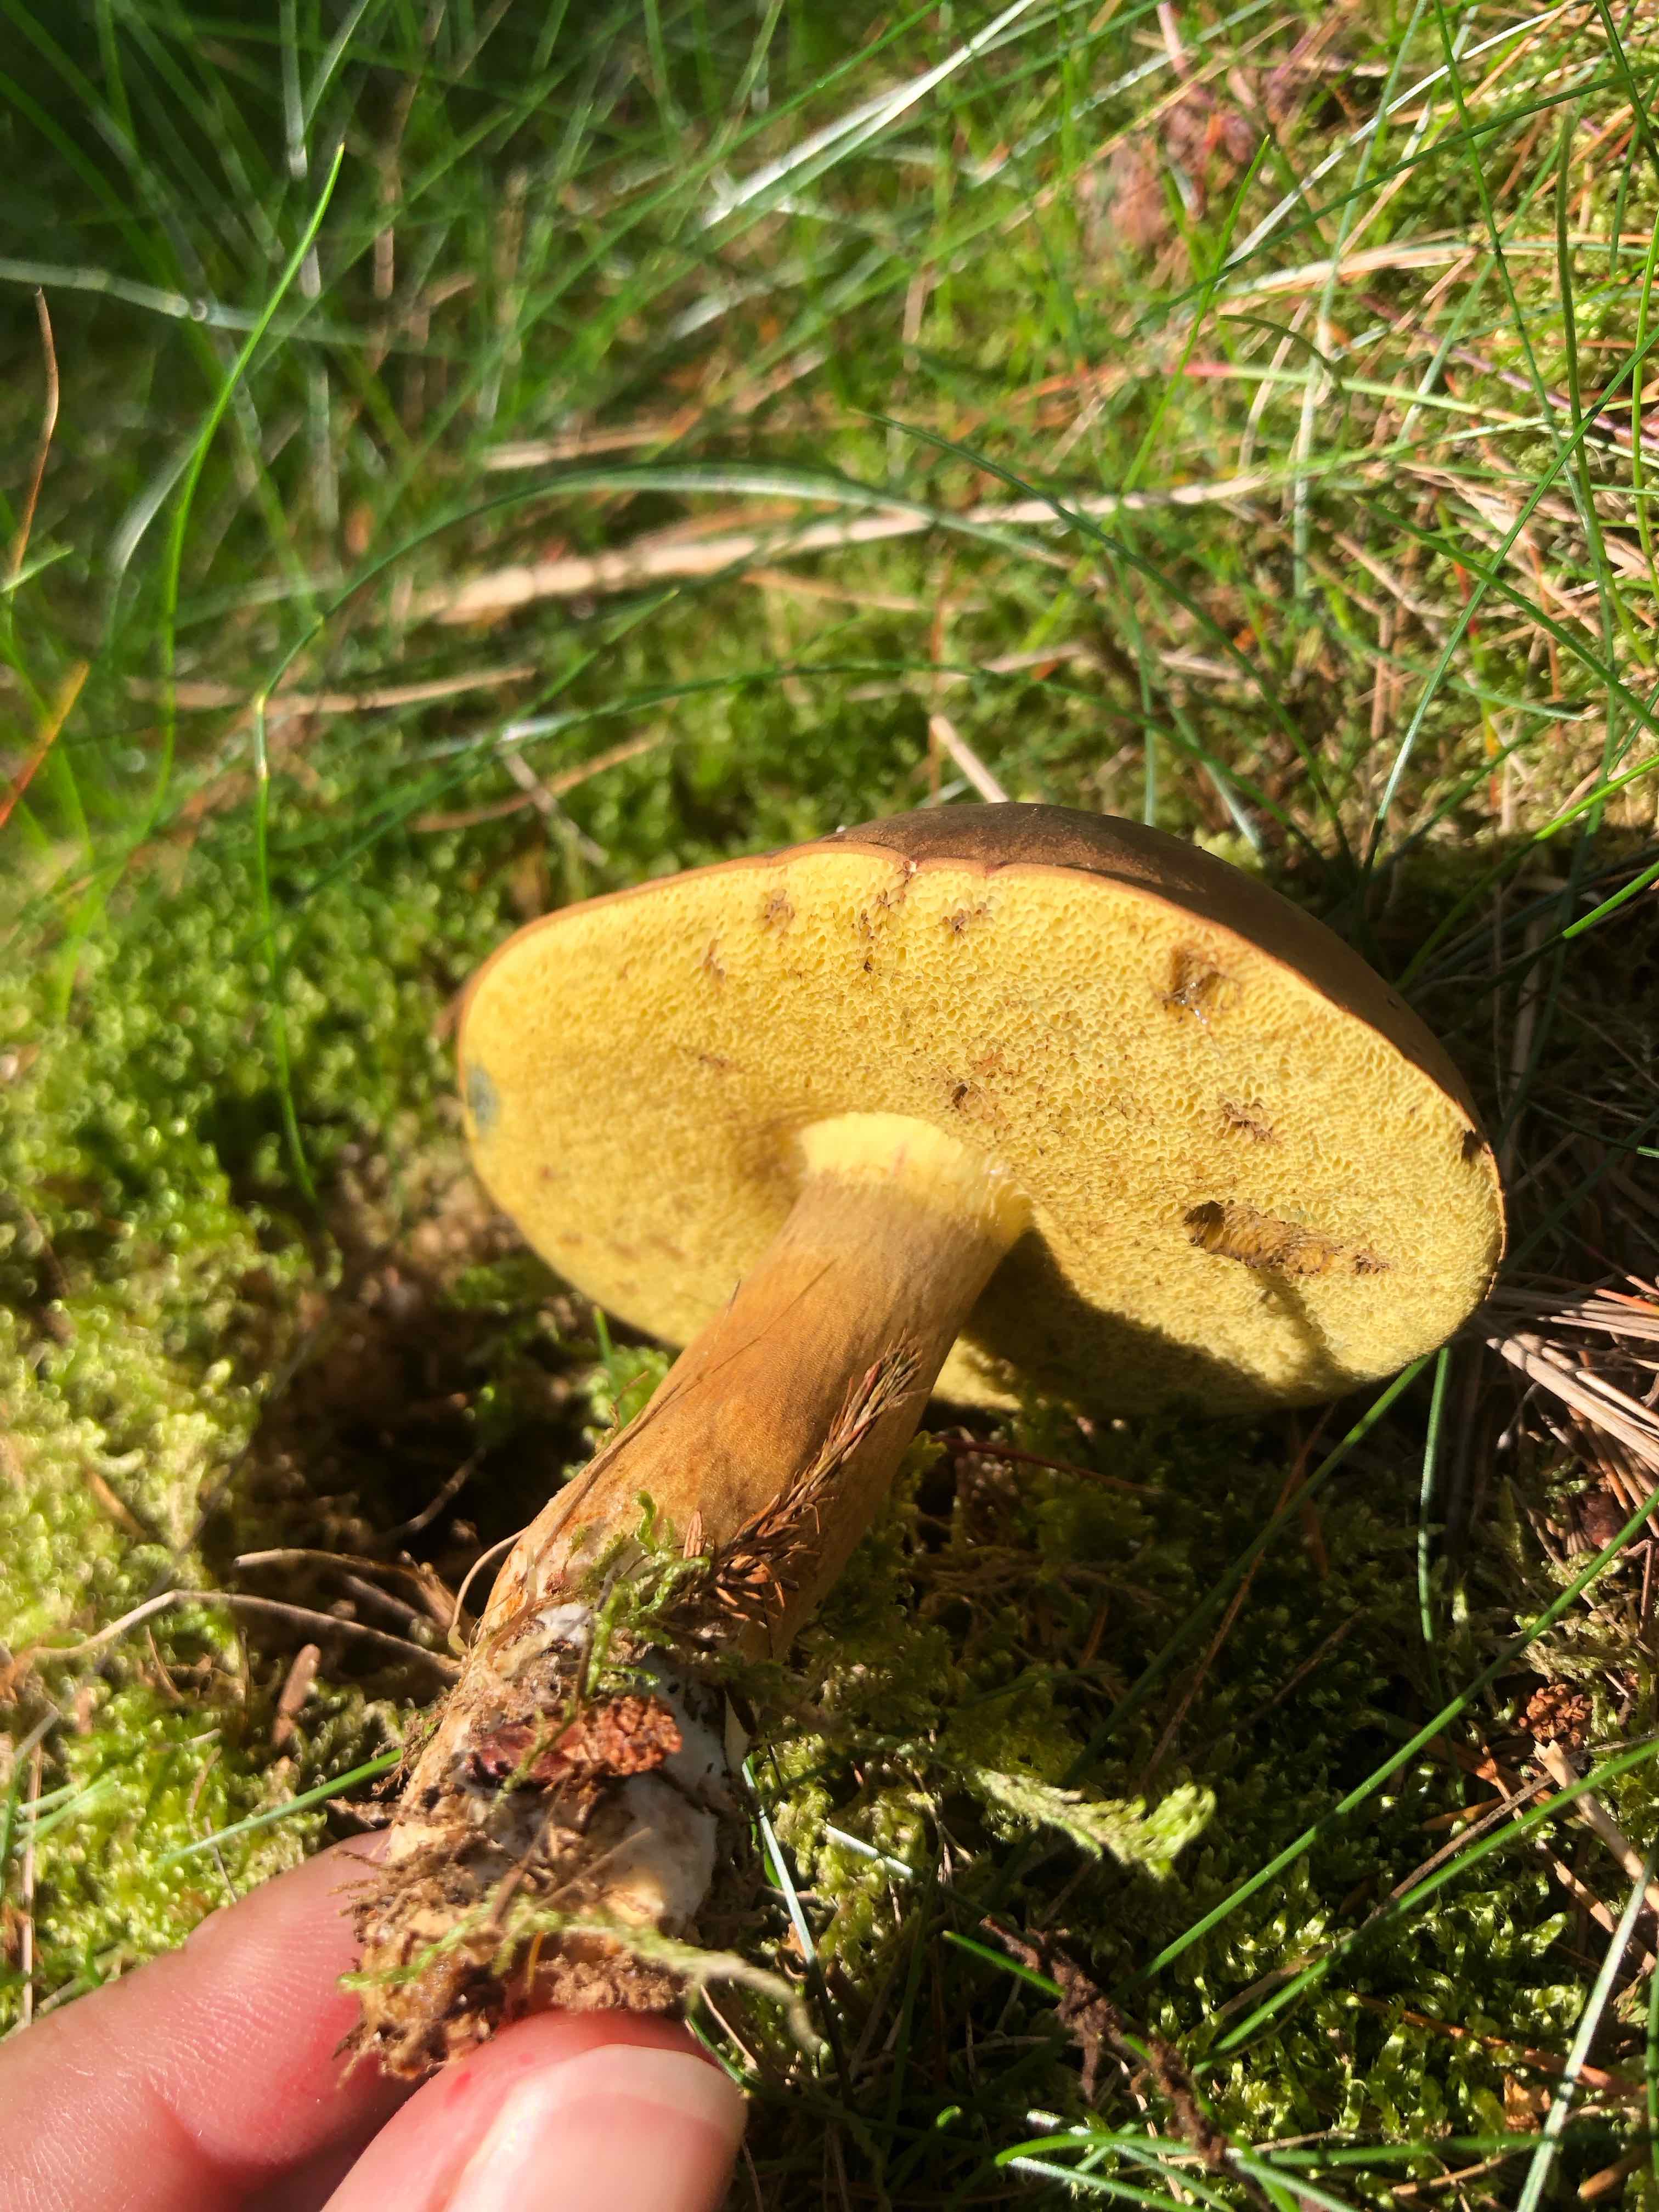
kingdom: Fungi
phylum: Basidiomycota
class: Agaricomycetes
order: Boletales
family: Boletaceae
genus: Imleria
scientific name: Imleria badia
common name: brunstokket rørhat
